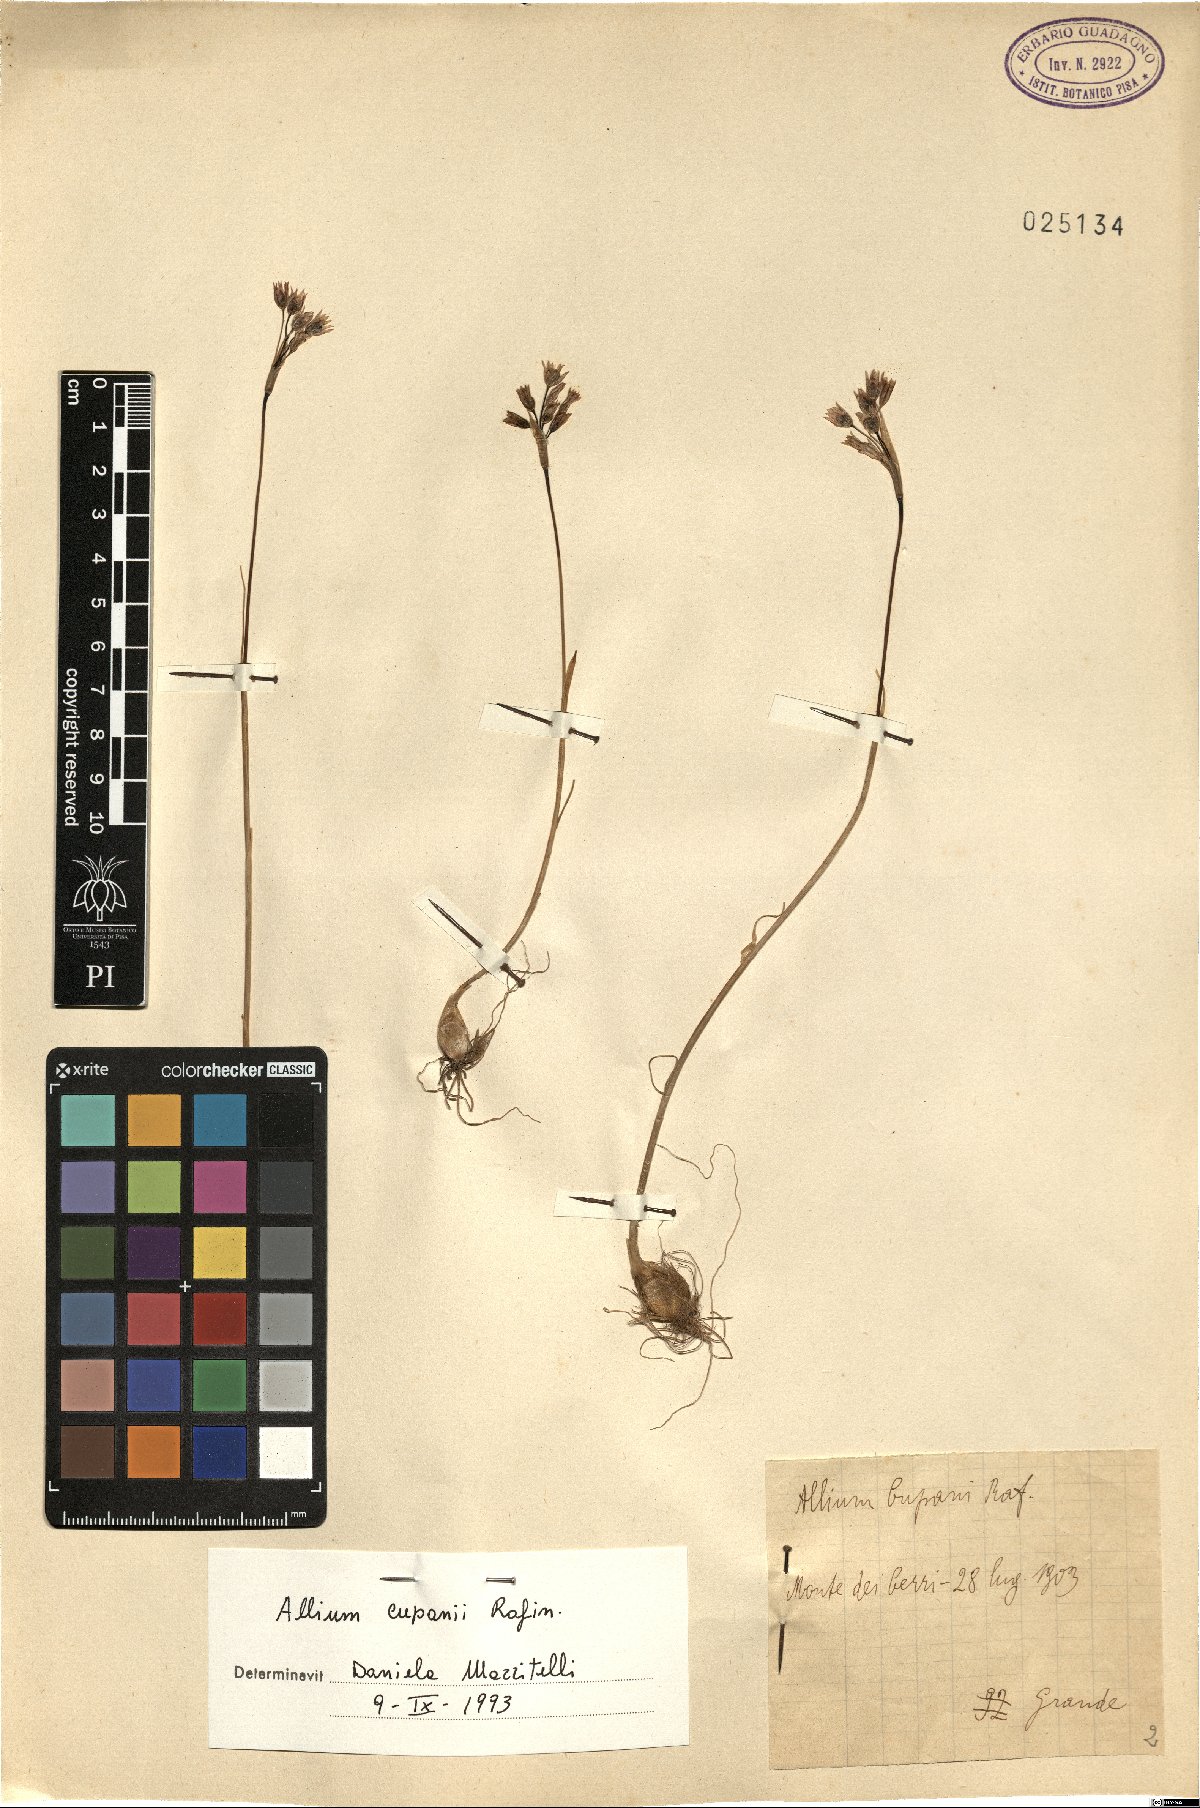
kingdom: Plantae
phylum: Tracheophyta
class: Liliopsida
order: Asparagales
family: Amaryllidaceae
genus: Allium
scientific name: Allium cupani
